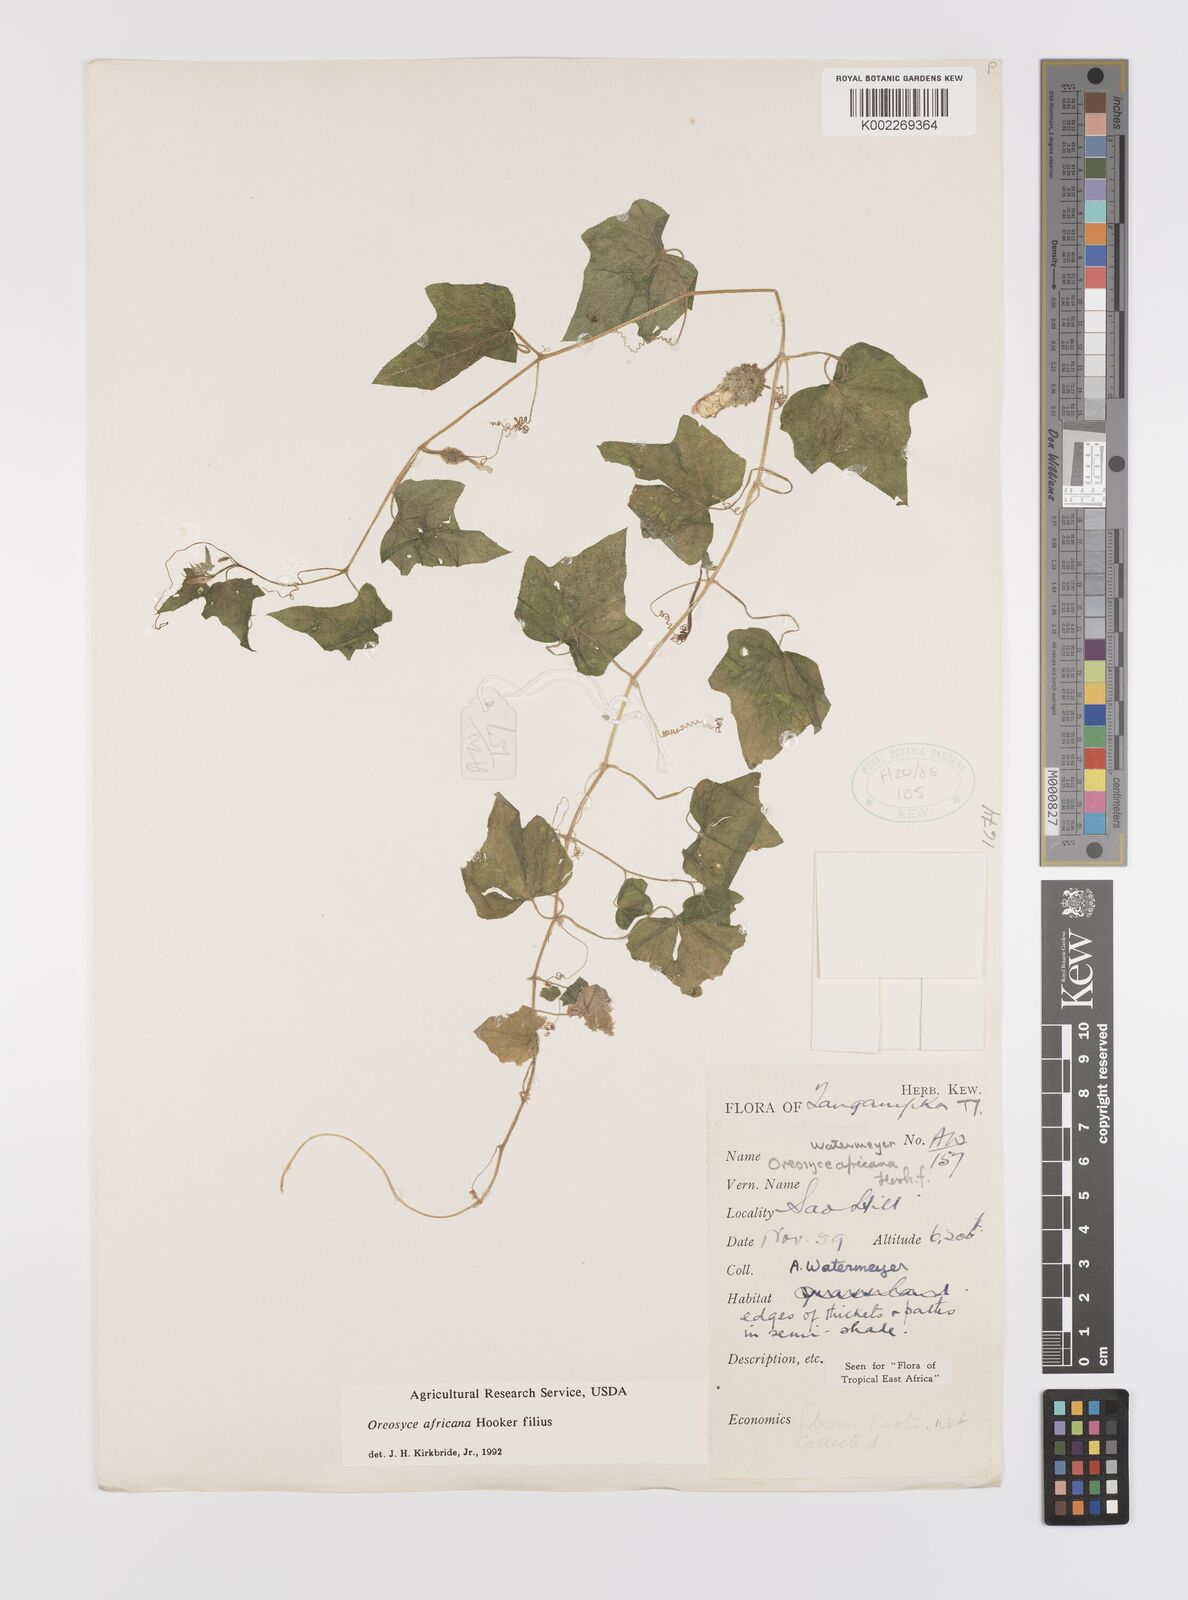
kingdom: Plantae
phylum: Tracheophyta
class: Magnoliopsida
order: Cucurbitales
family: Cucurbitaceae
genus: Cucumis
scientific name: Cucumis oreosyce
